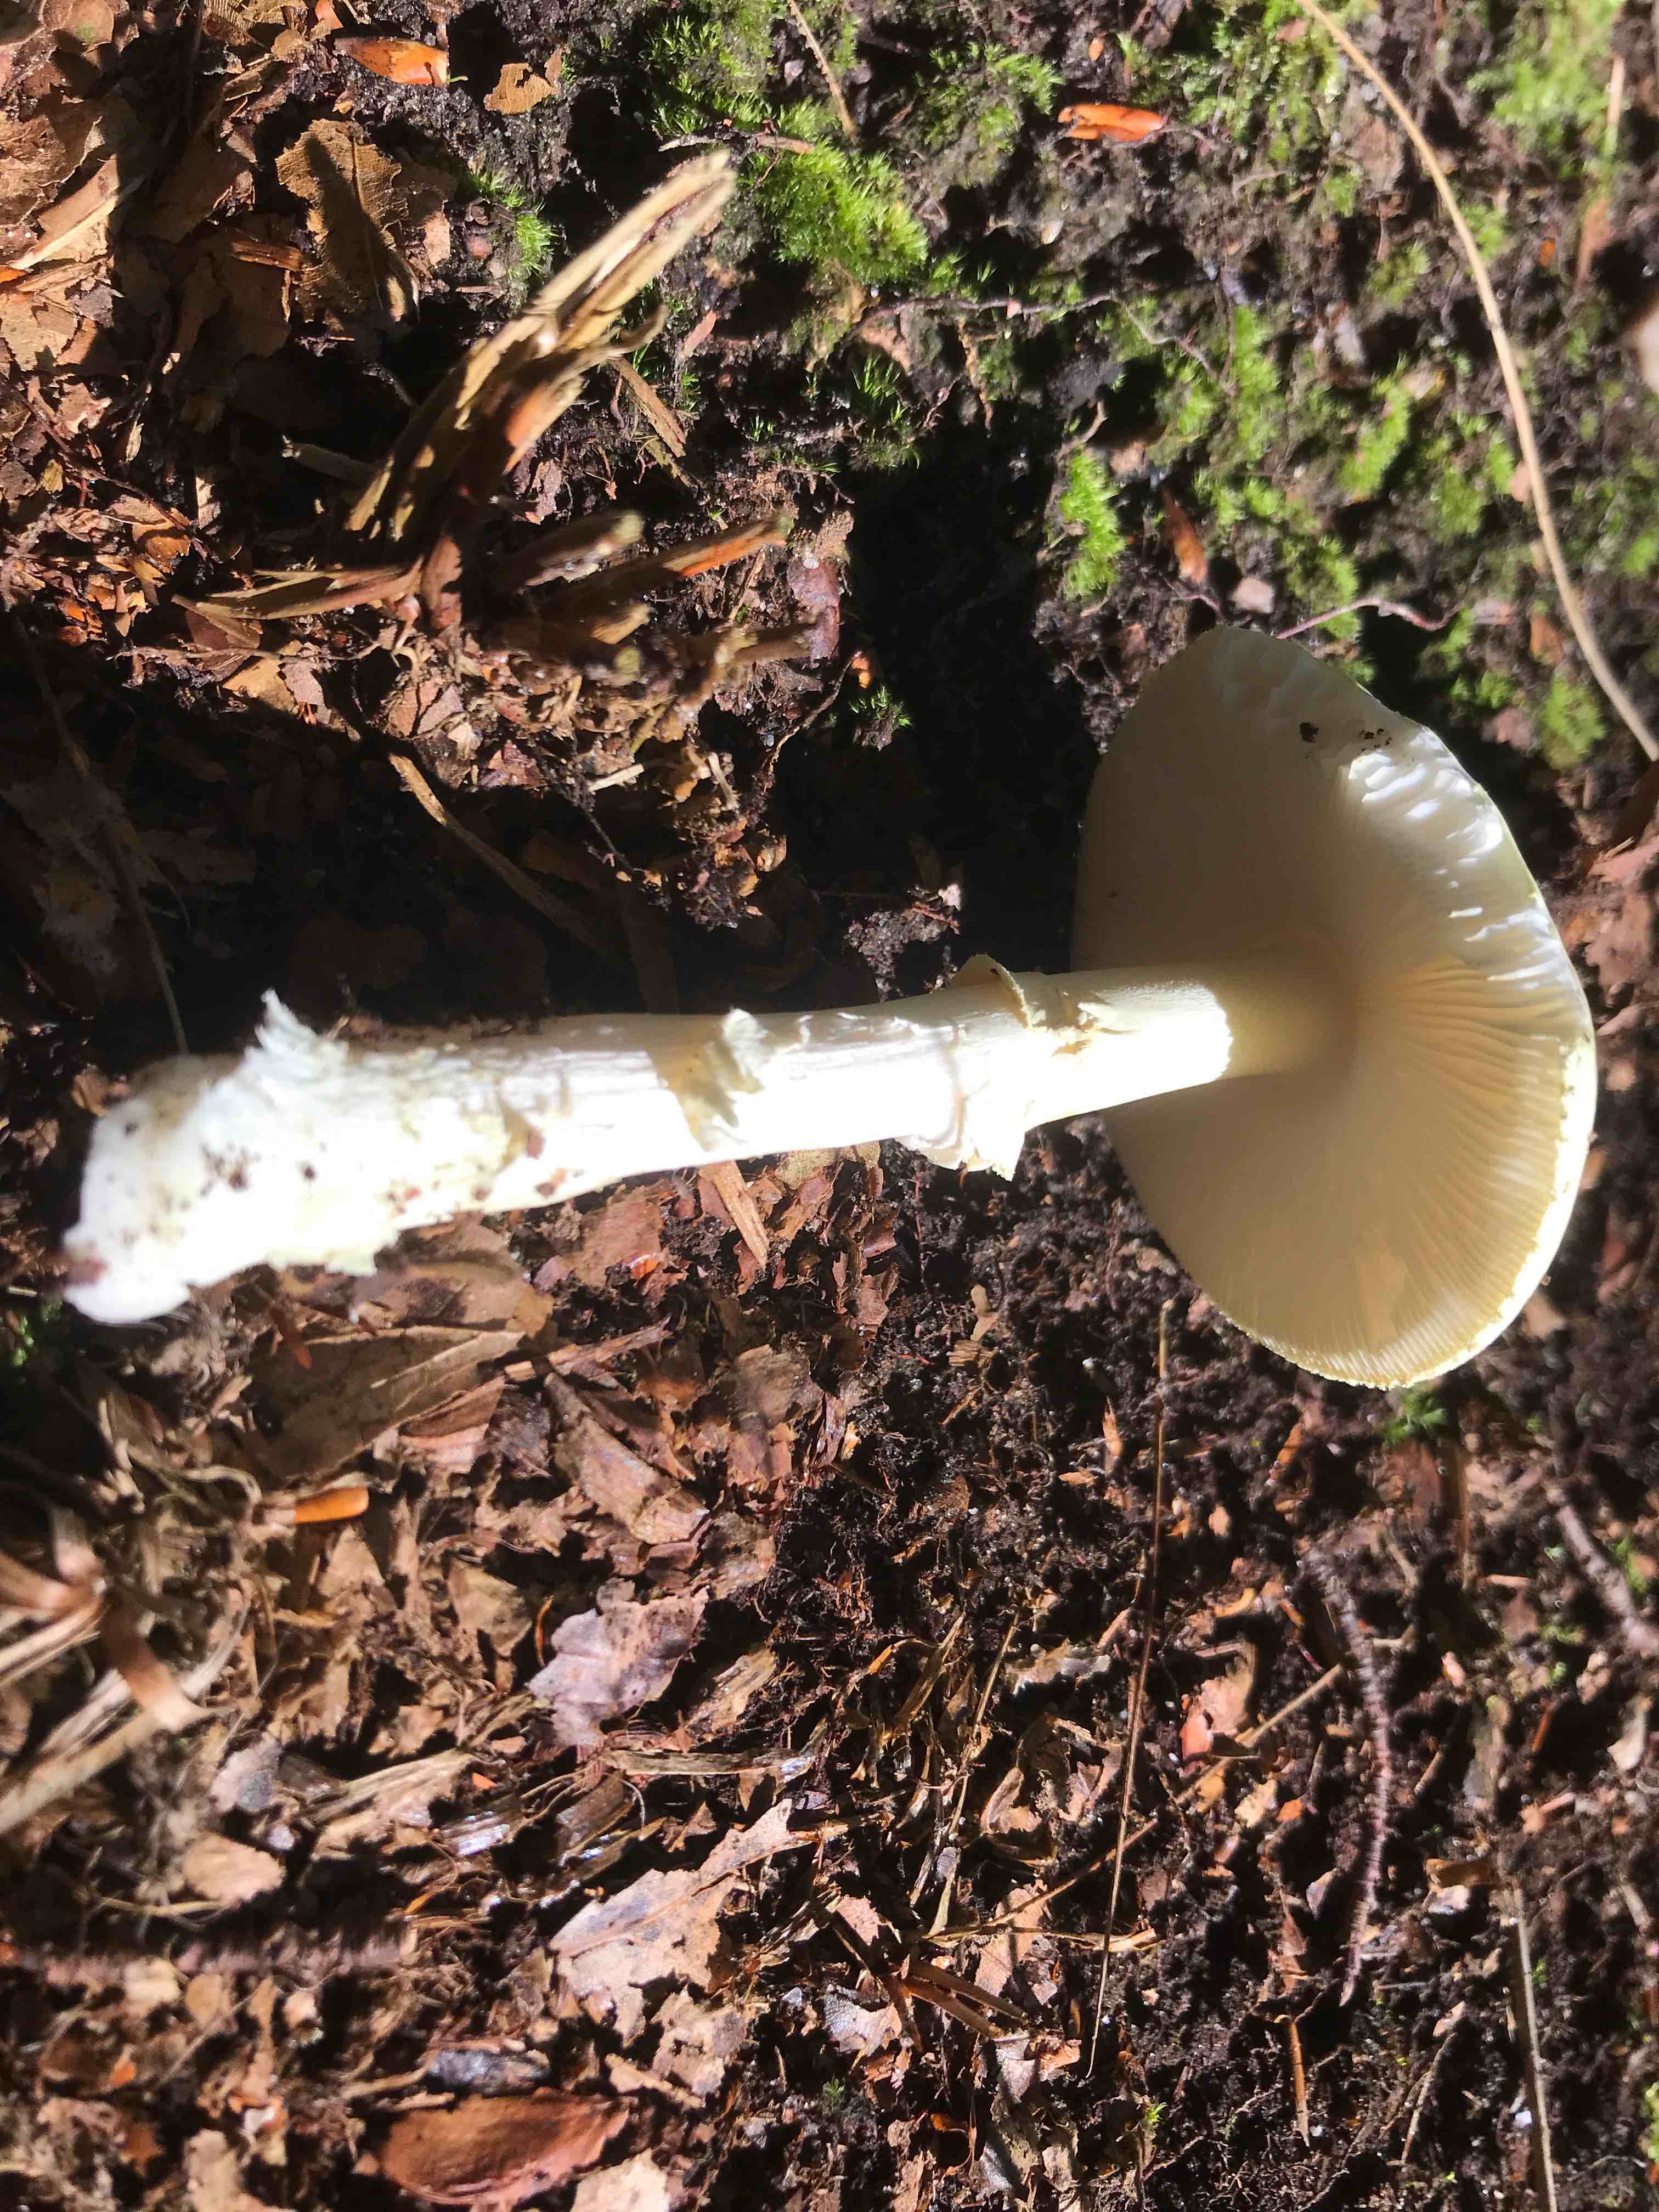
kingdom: Fungi
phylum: Basidiomycota
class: Agaricomycetes
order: Agaricales
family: Amanitaceae
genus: Amanita
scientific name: Amanita
